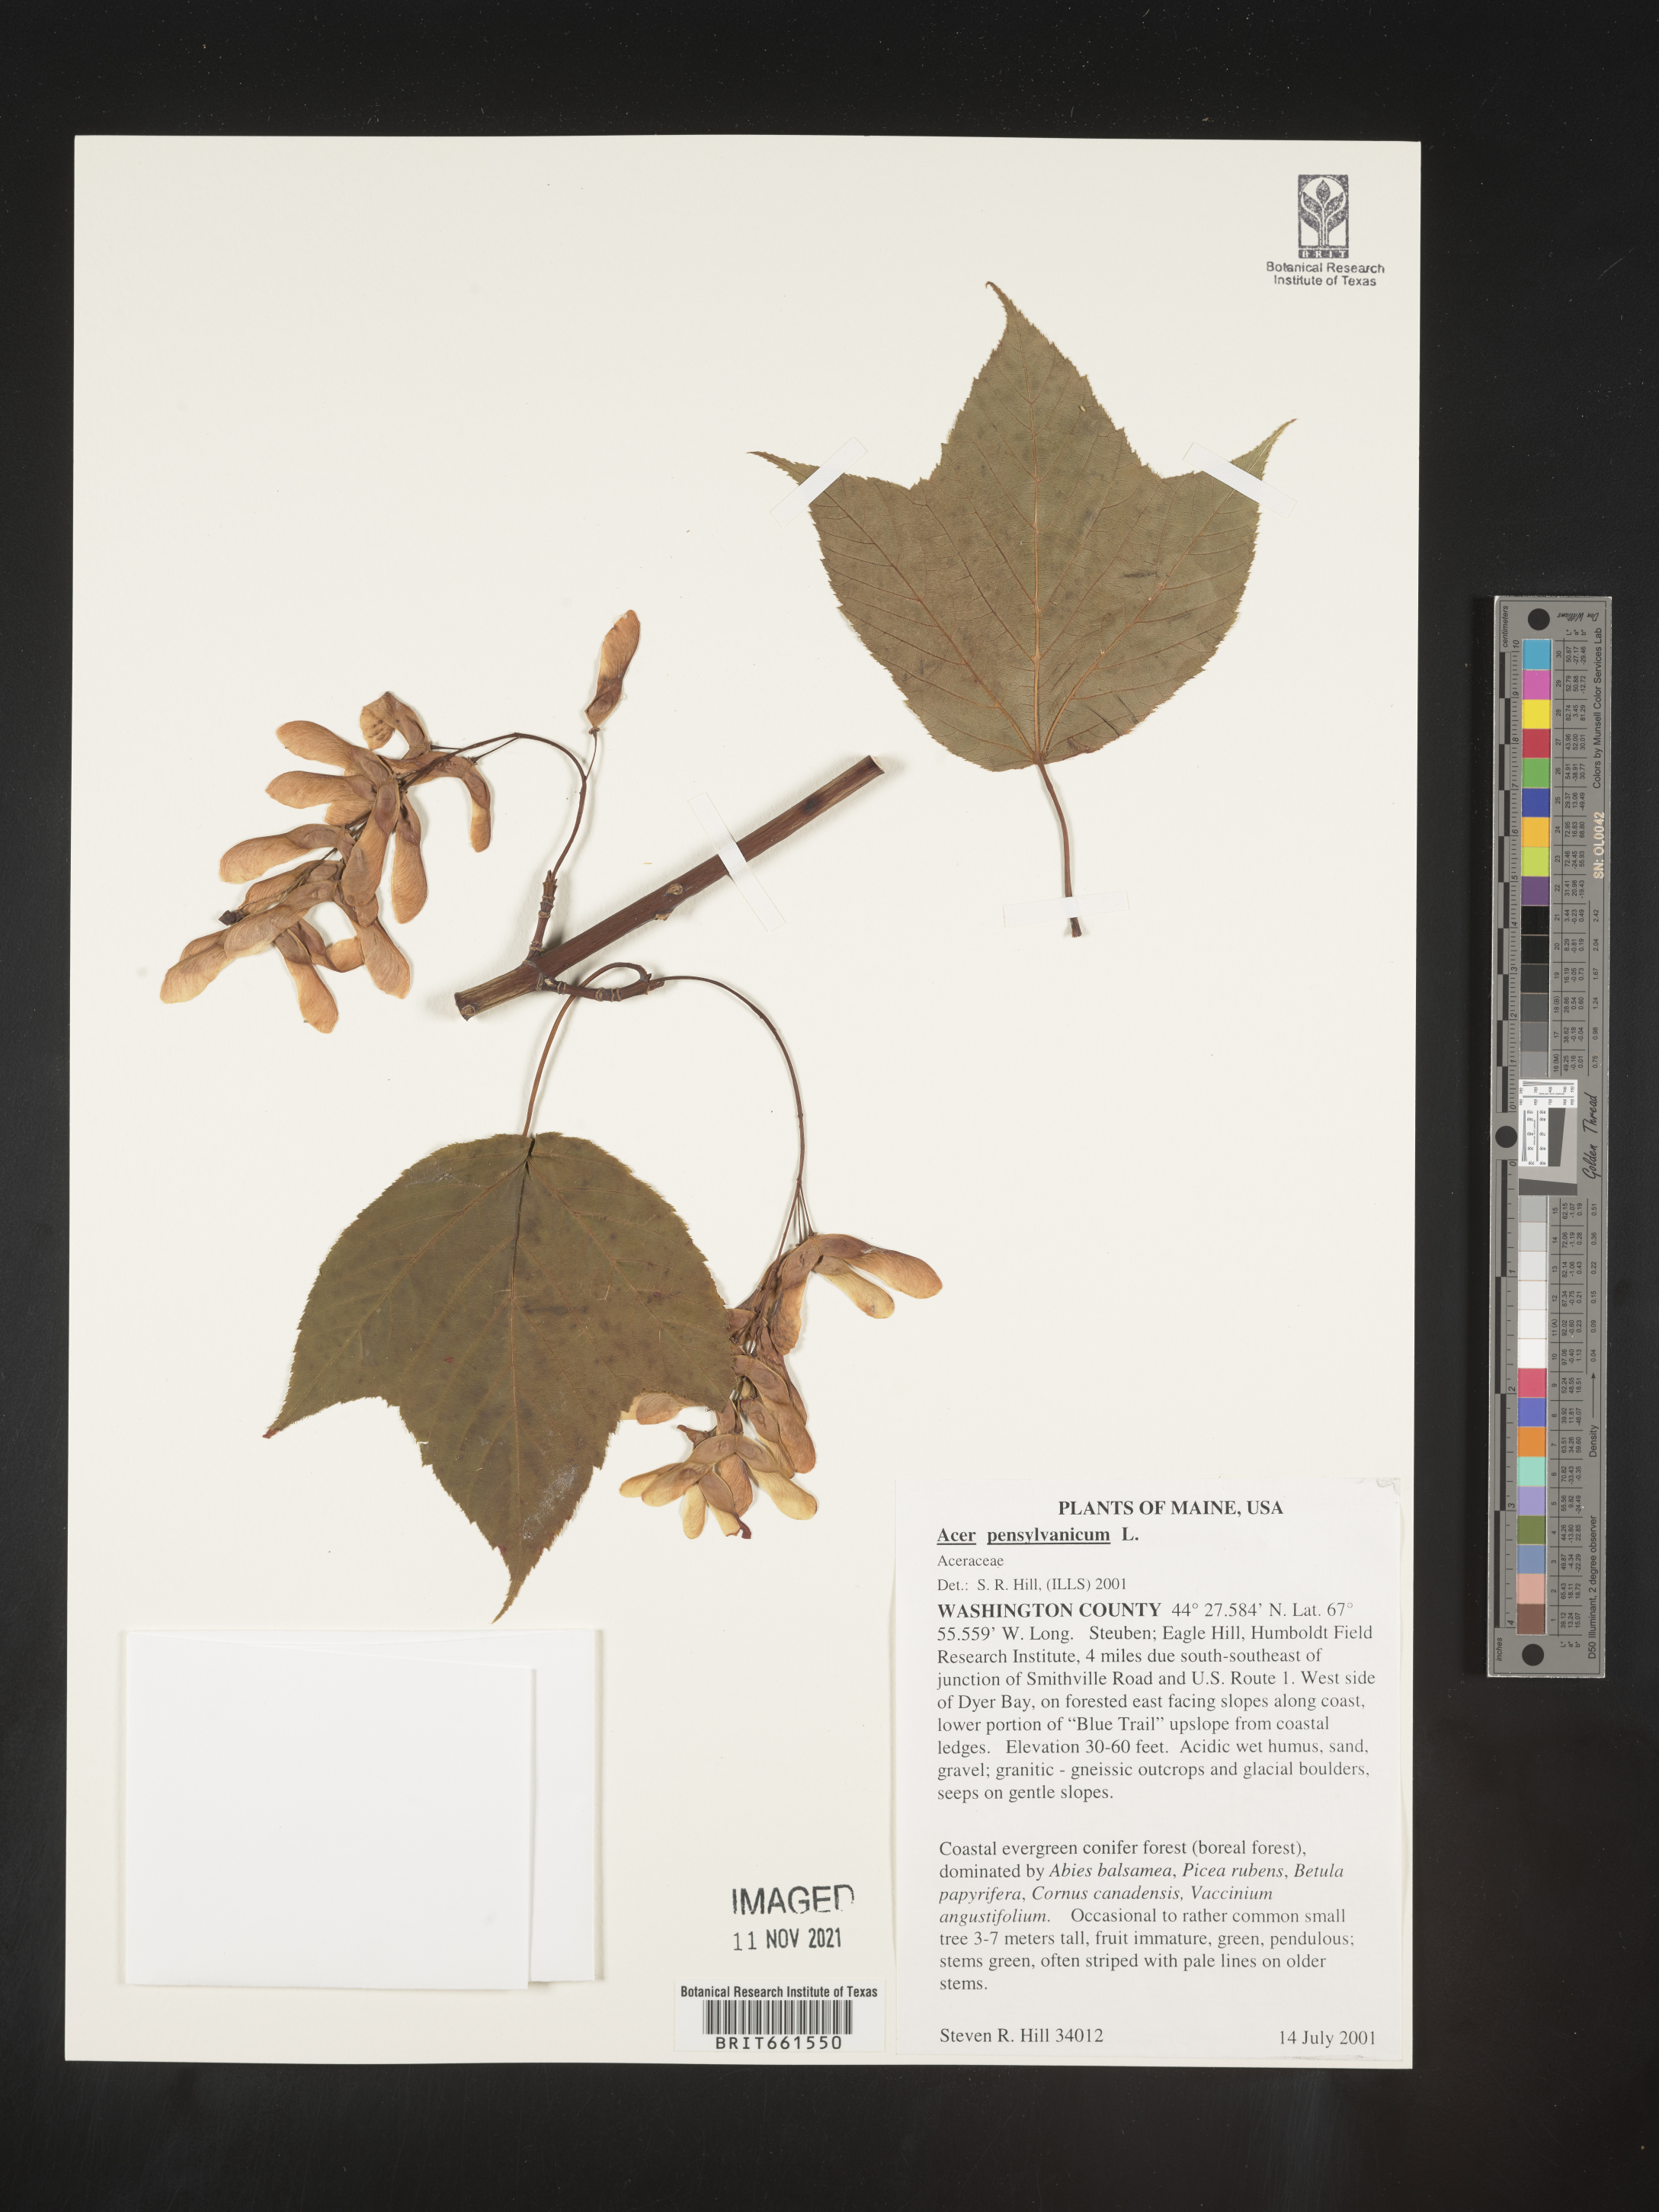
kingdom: Plantae
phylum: Tracheophyta
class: Magnoliopsida
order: Sapindales
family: Sapindaceae
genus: Acer
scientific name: Acer pensylvanicum
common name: Moosewood
